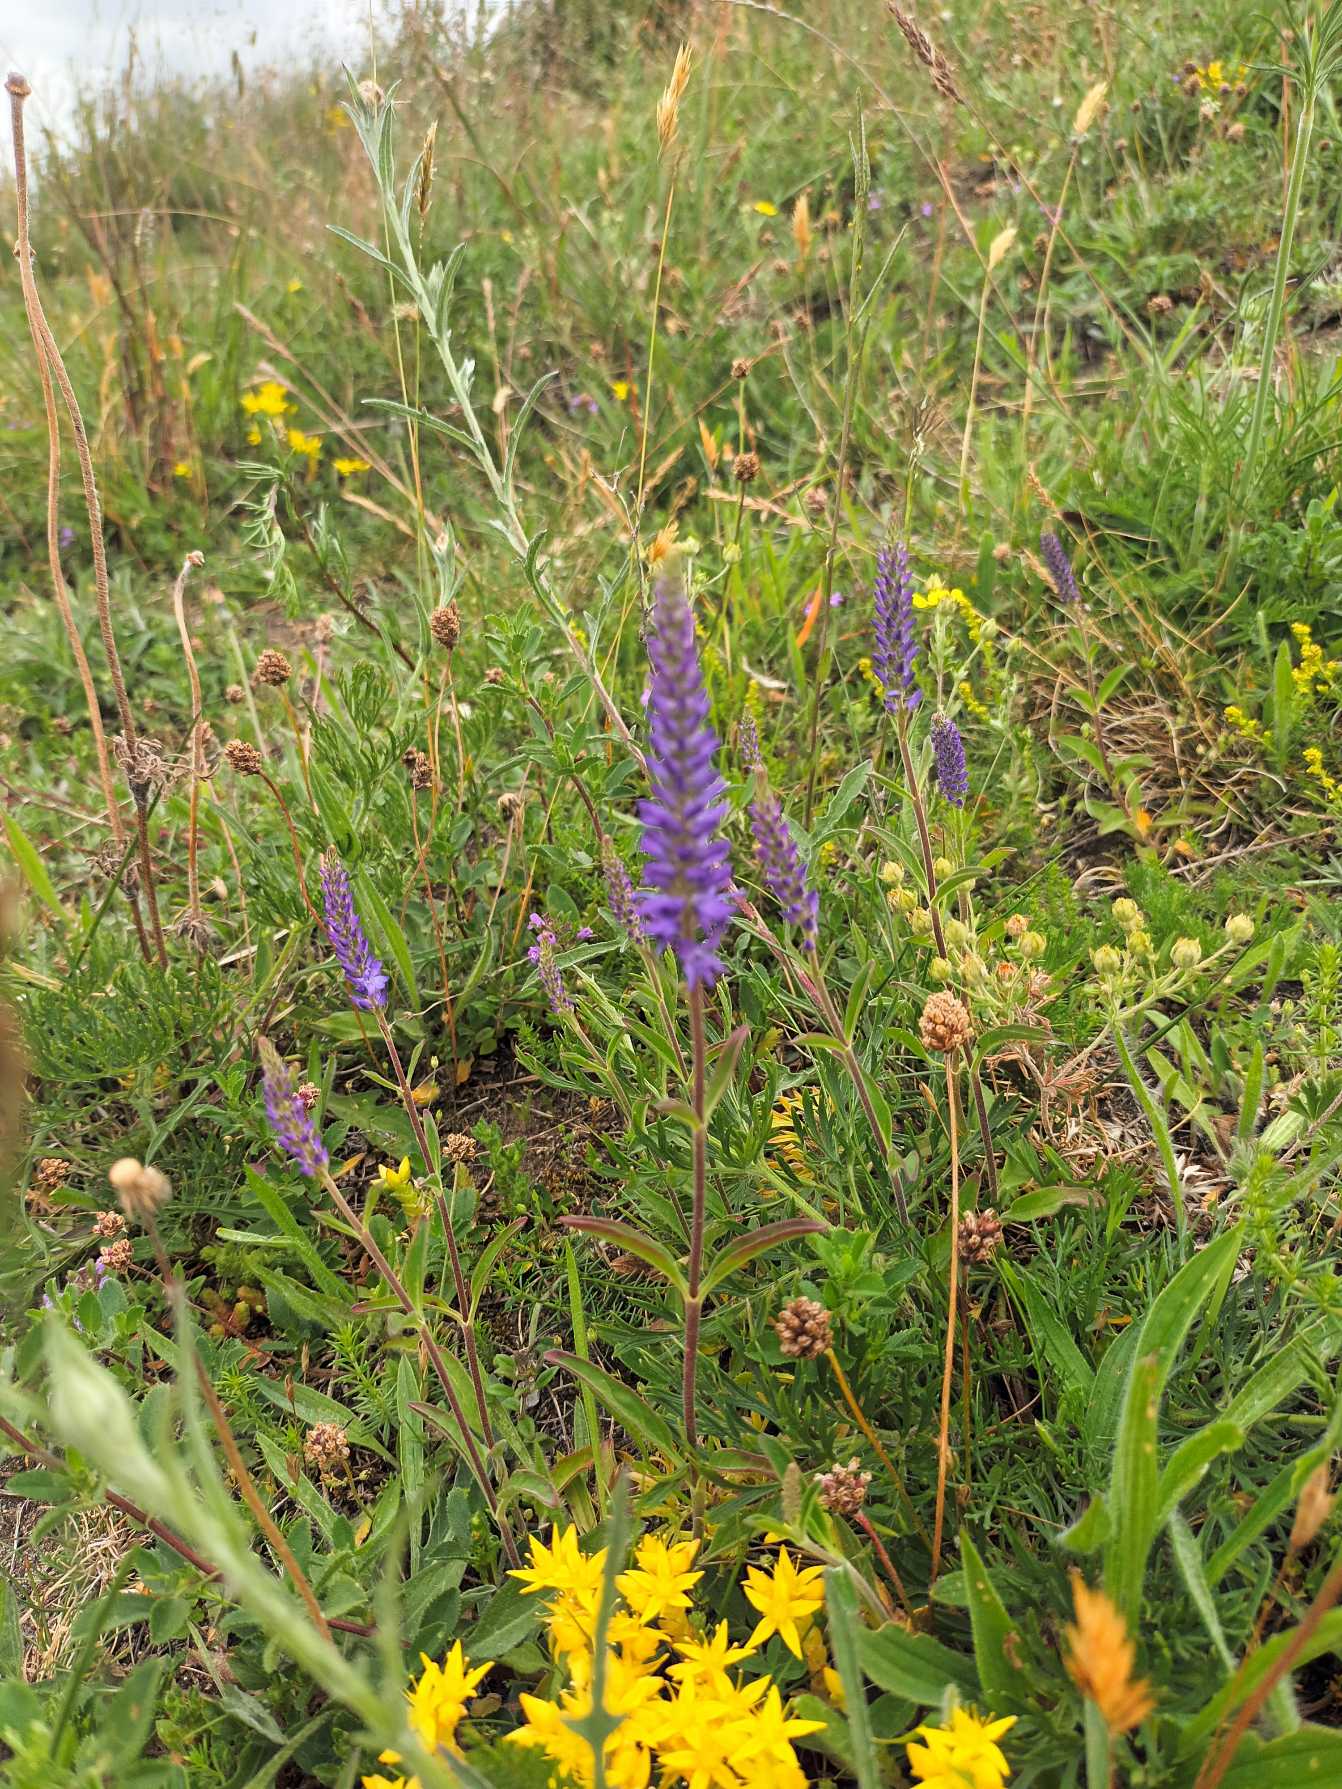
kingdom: Plantae
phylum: Tracheophyta
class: Magnoliopsida
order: Lamiales
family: Plantaginaceae
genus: Veronica
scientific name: Veronica spicata
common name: Aks-ærenpris
